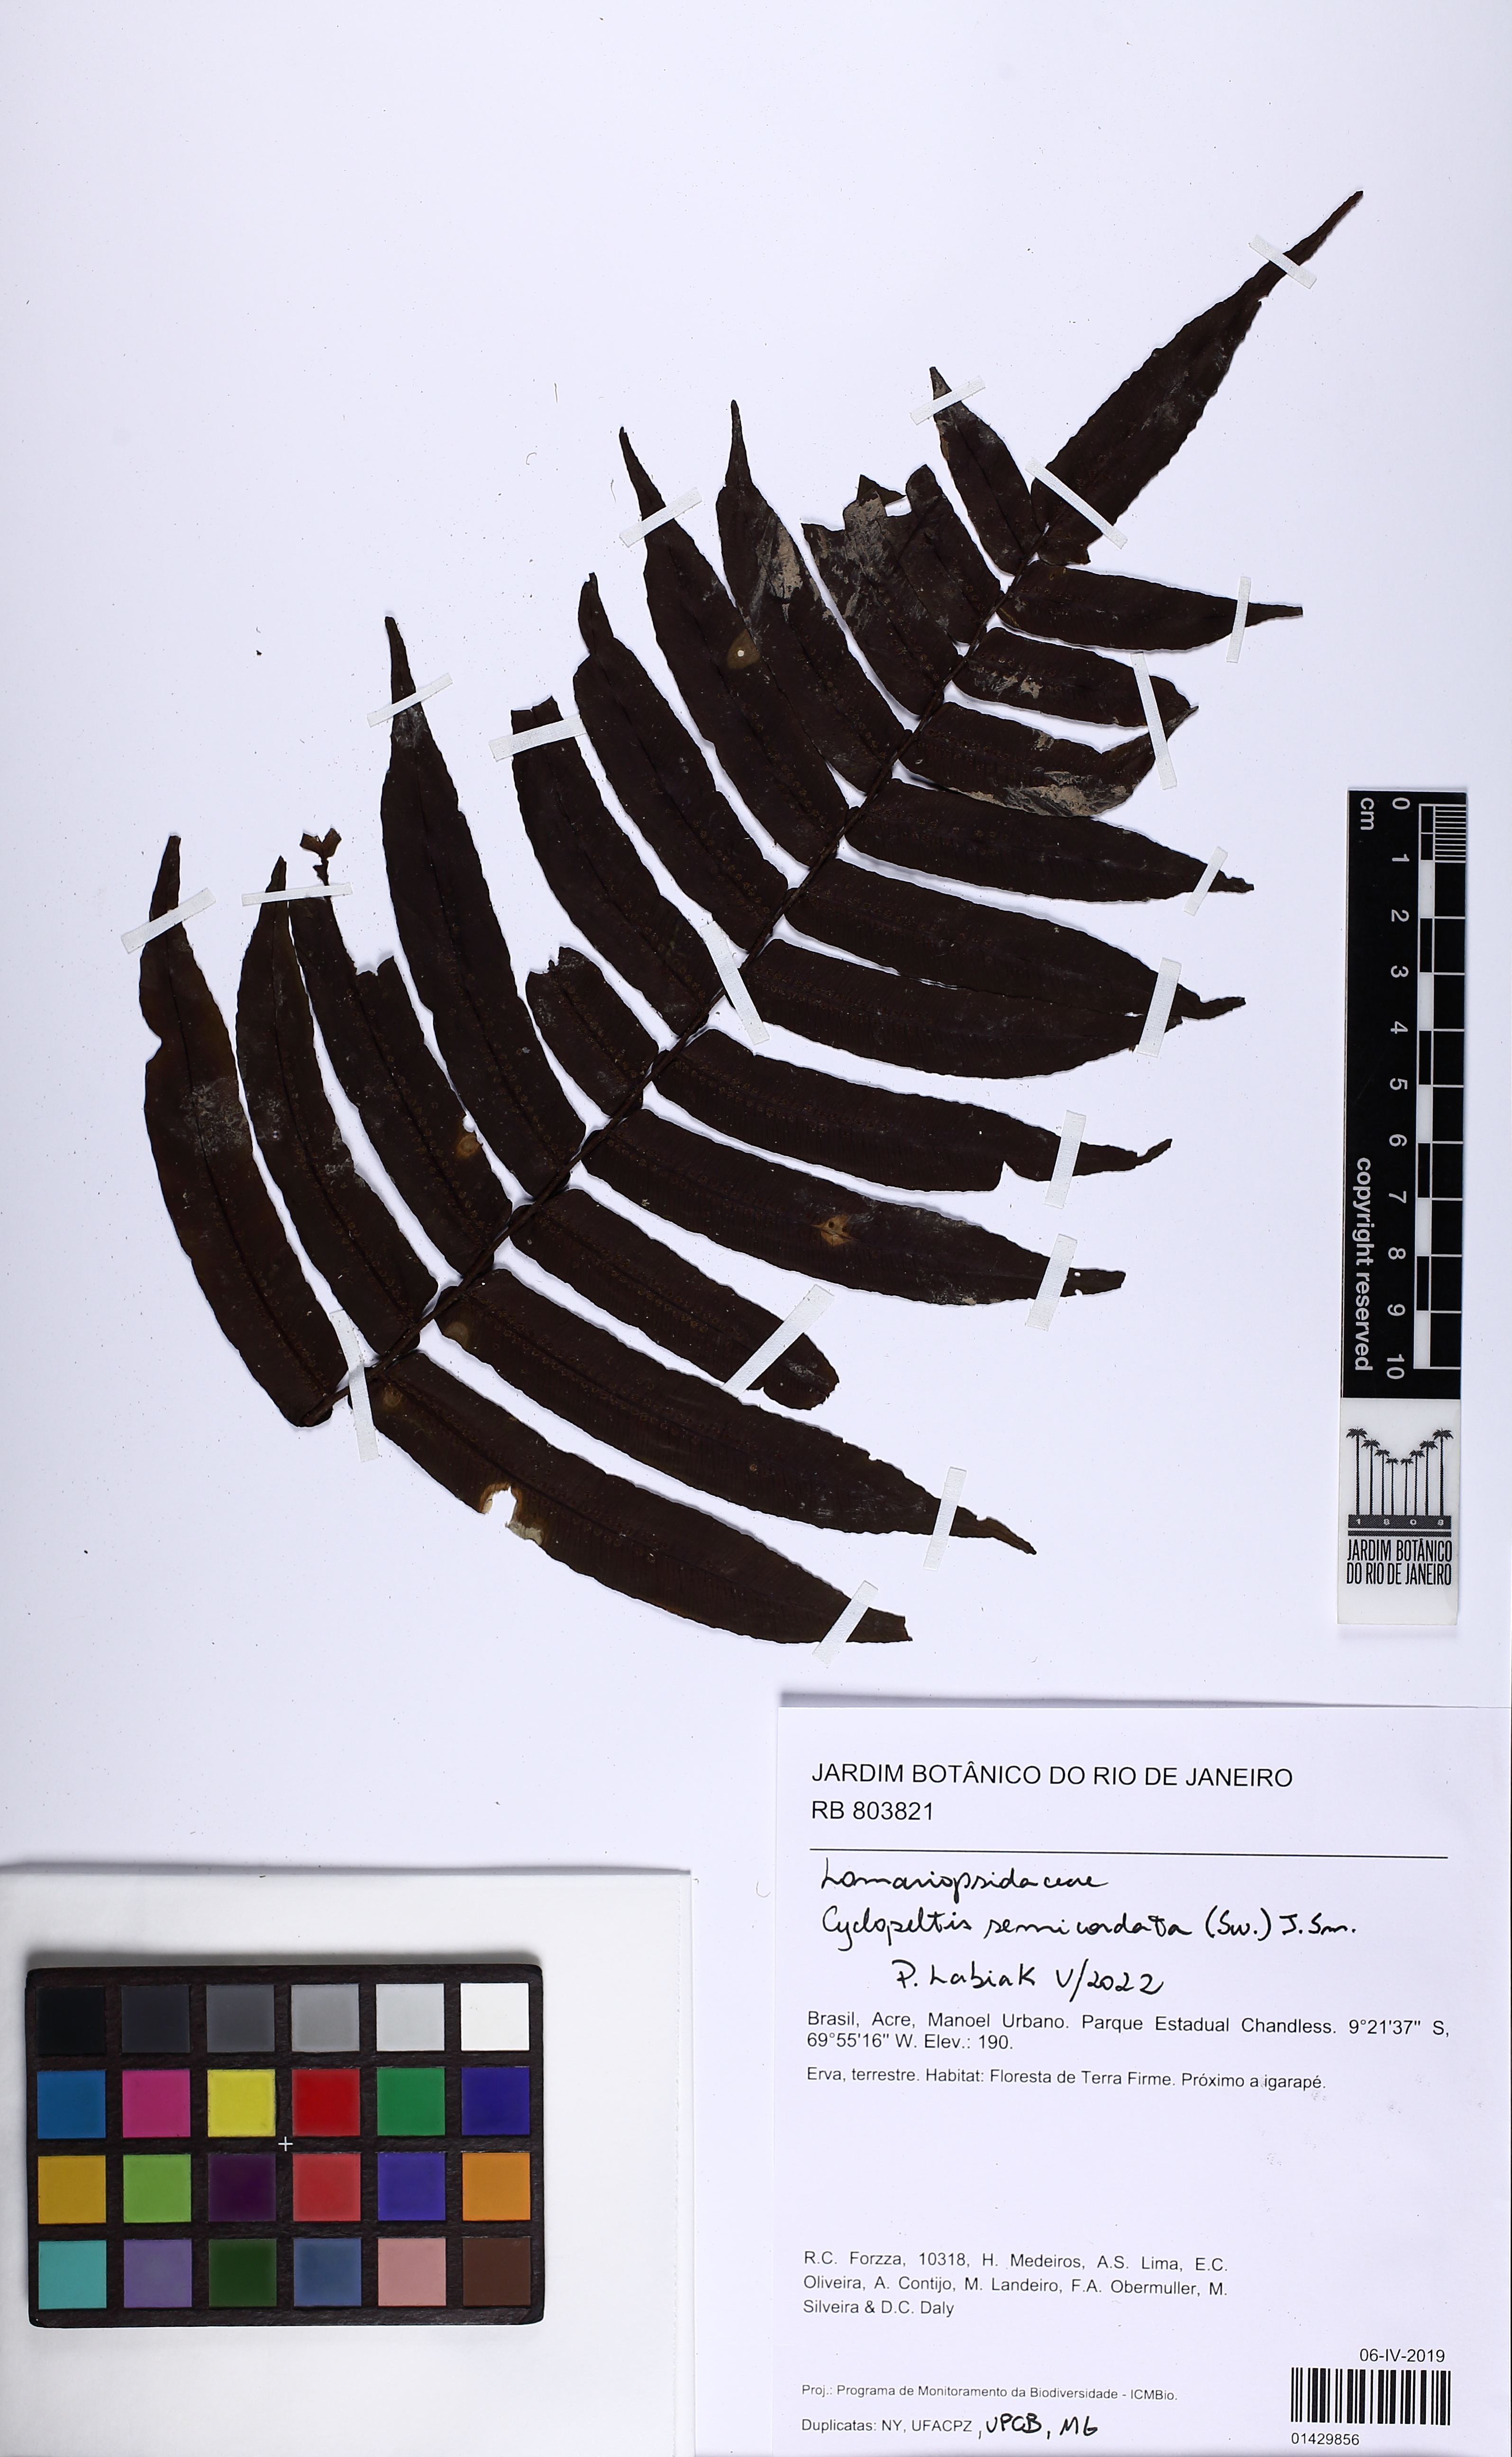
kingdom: Plantae
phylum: Tracheophyta
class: Polypodiopsida
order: Polypodiales
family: Lomariopsidaceae
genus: Cyclopeltis
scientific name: Cyclopeltis semicordata
